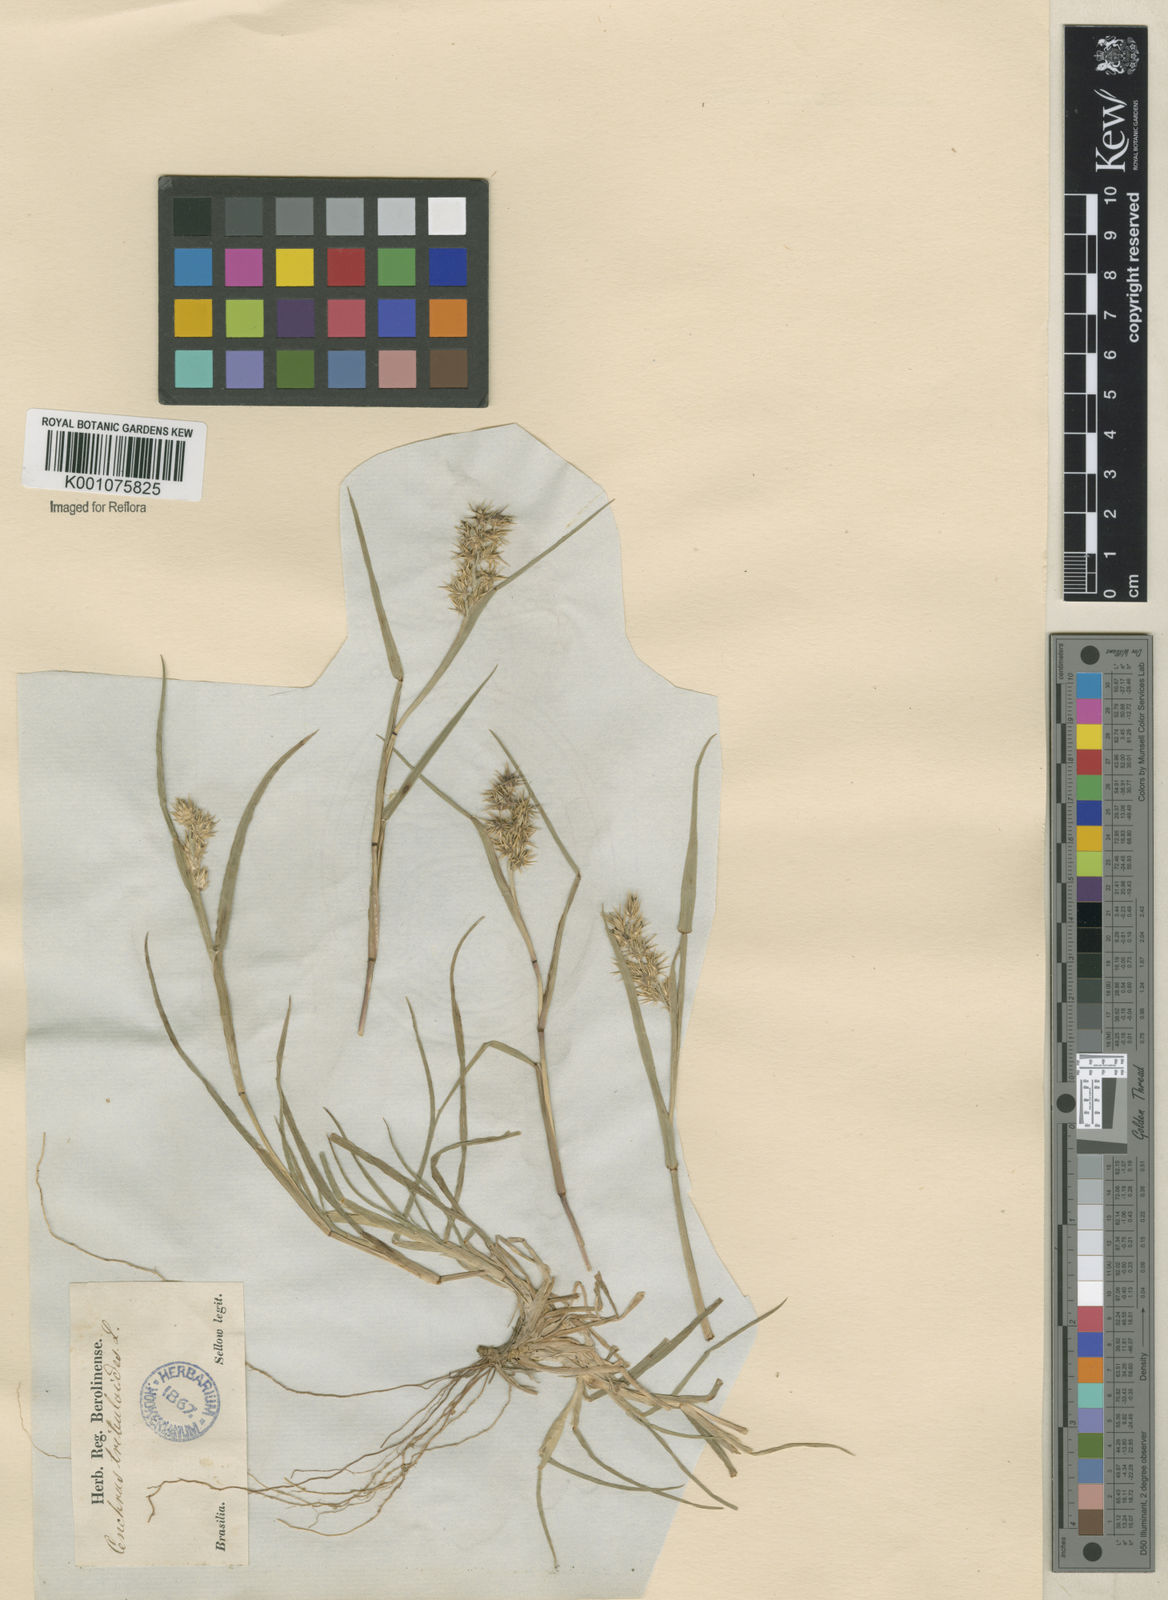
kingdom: Plantae
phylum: Tracheophyta
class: Liliopsida
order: Poales
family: Poaceae
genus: Cenchrus
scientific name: Cenchrus echinatus
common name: Southern sandbur
